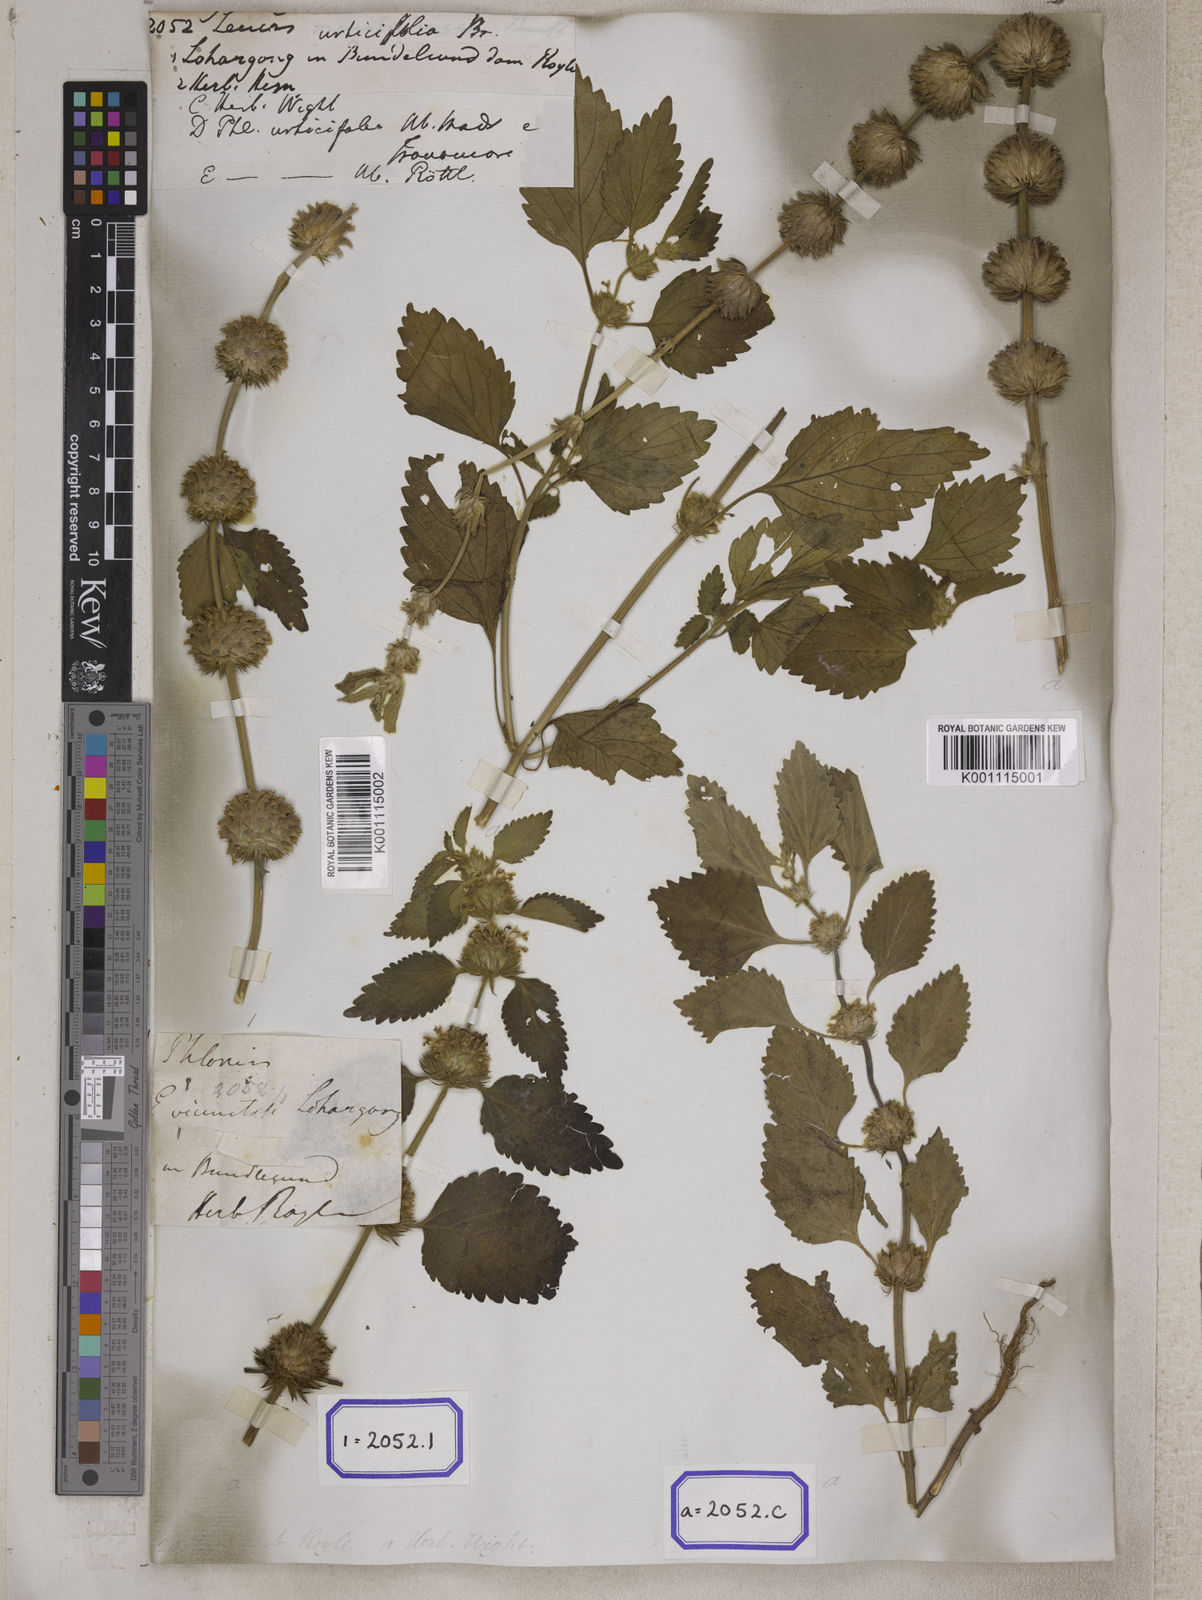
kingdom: Plantae
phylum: Tracheophyta
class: Magnoliopsida
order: Lamiales
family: Lamiaceae
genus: Leucas
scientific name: Leucas
